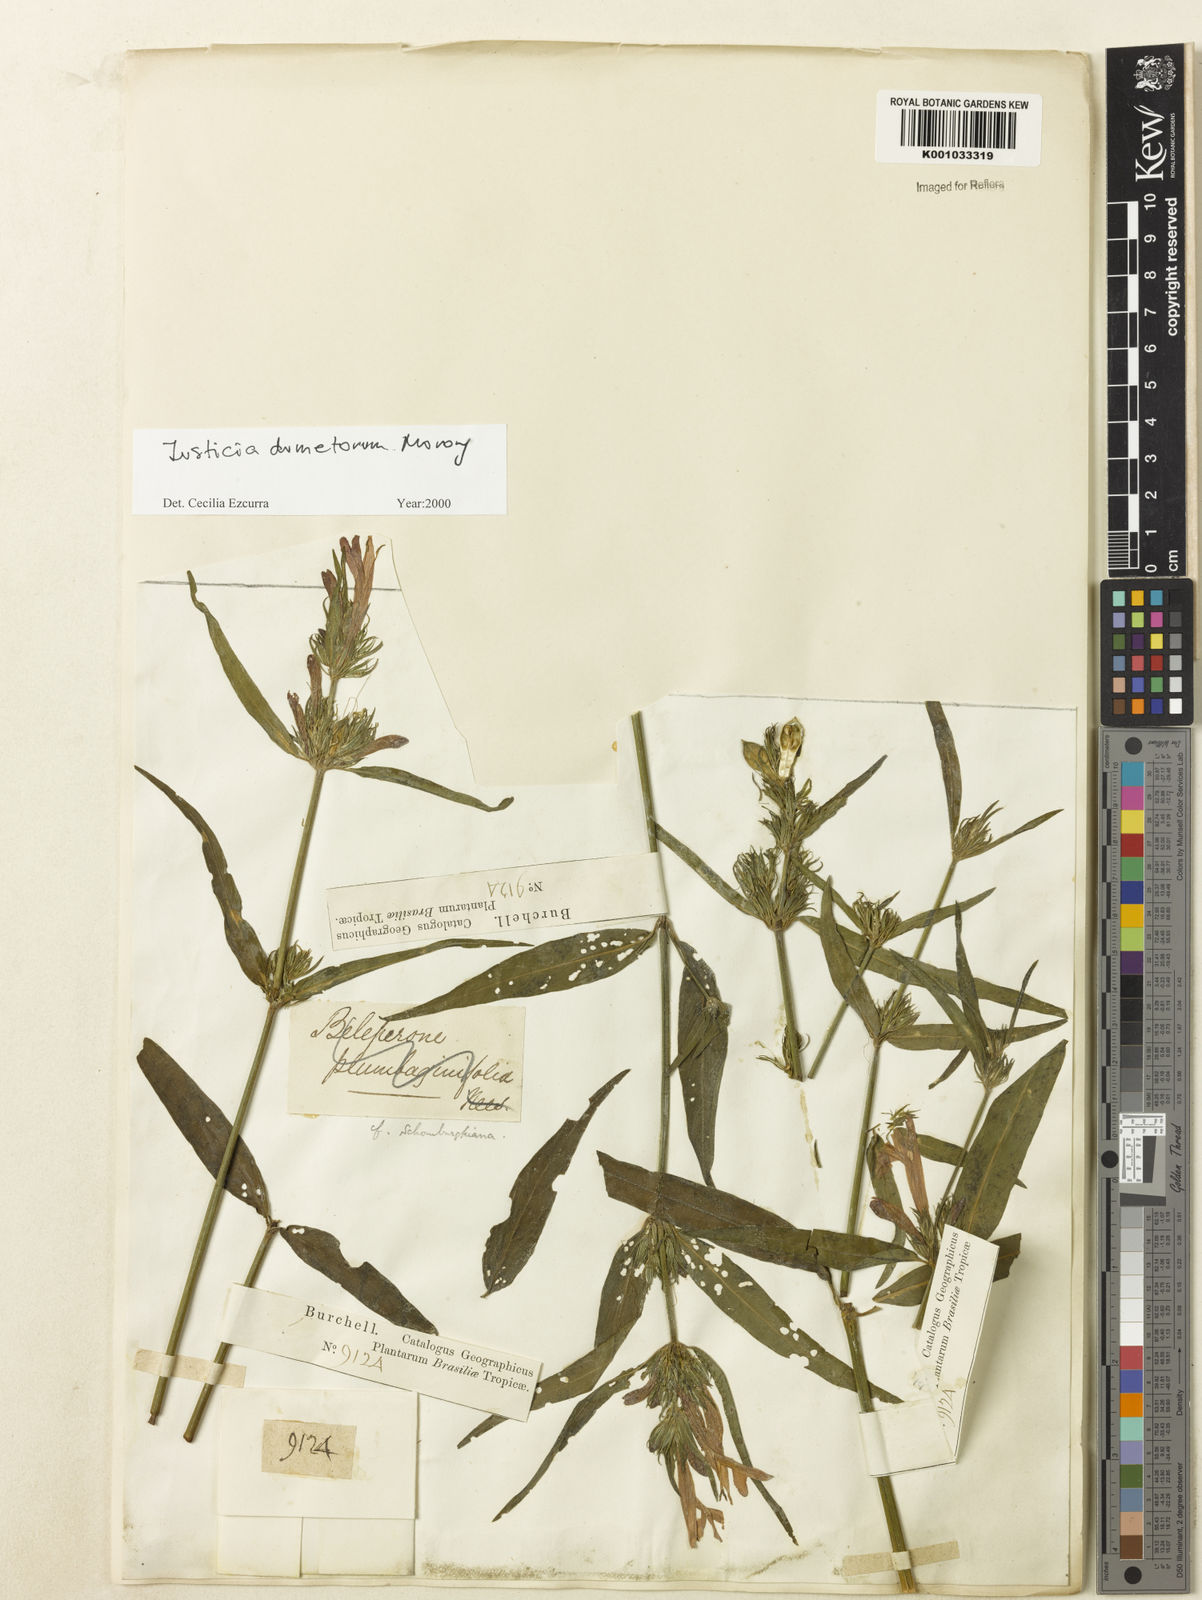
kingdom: Plantae
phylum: Tracheophyta
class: Magnoliopsida
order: Lamiales
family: Acanthaceae
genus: Justicia
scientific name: Justicia dumetorum
